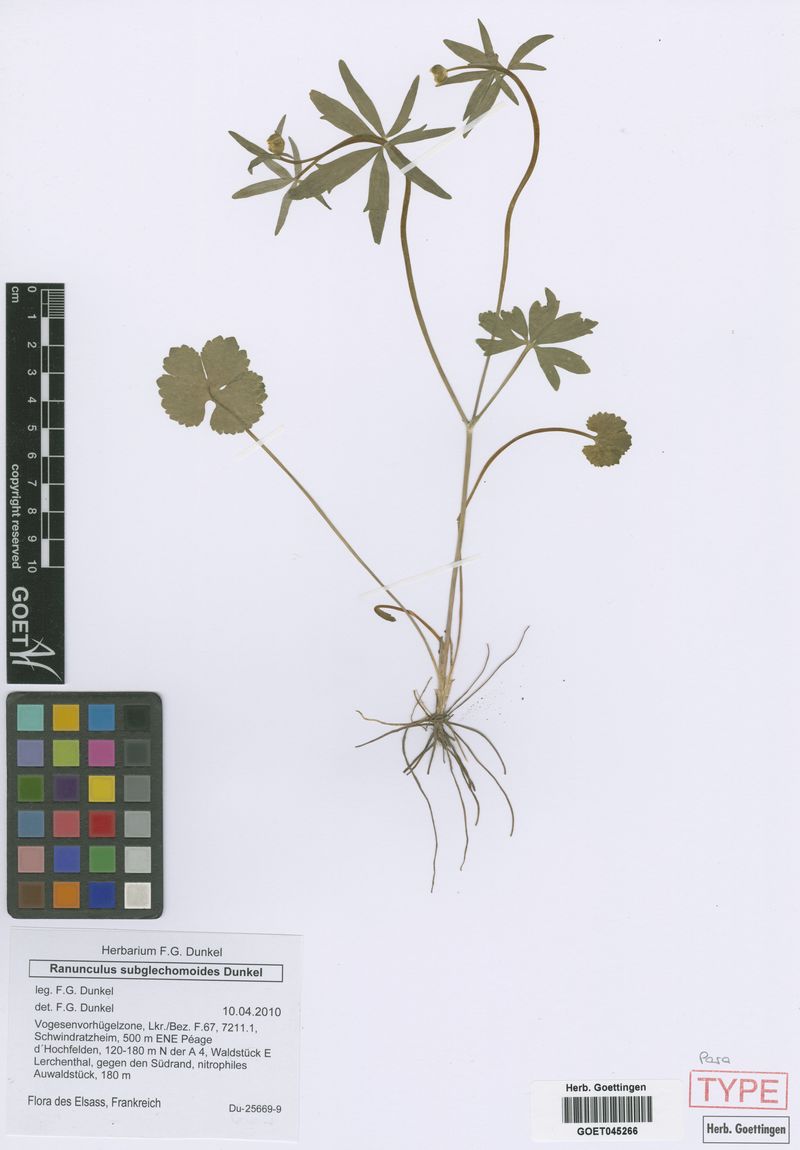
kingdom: Plantae
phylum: Tracheophyta
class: Magnoliopsida
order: Ranunculales
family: Ranunculaceae
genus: Ranunculus
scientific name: Ranunculus subglechomoides
